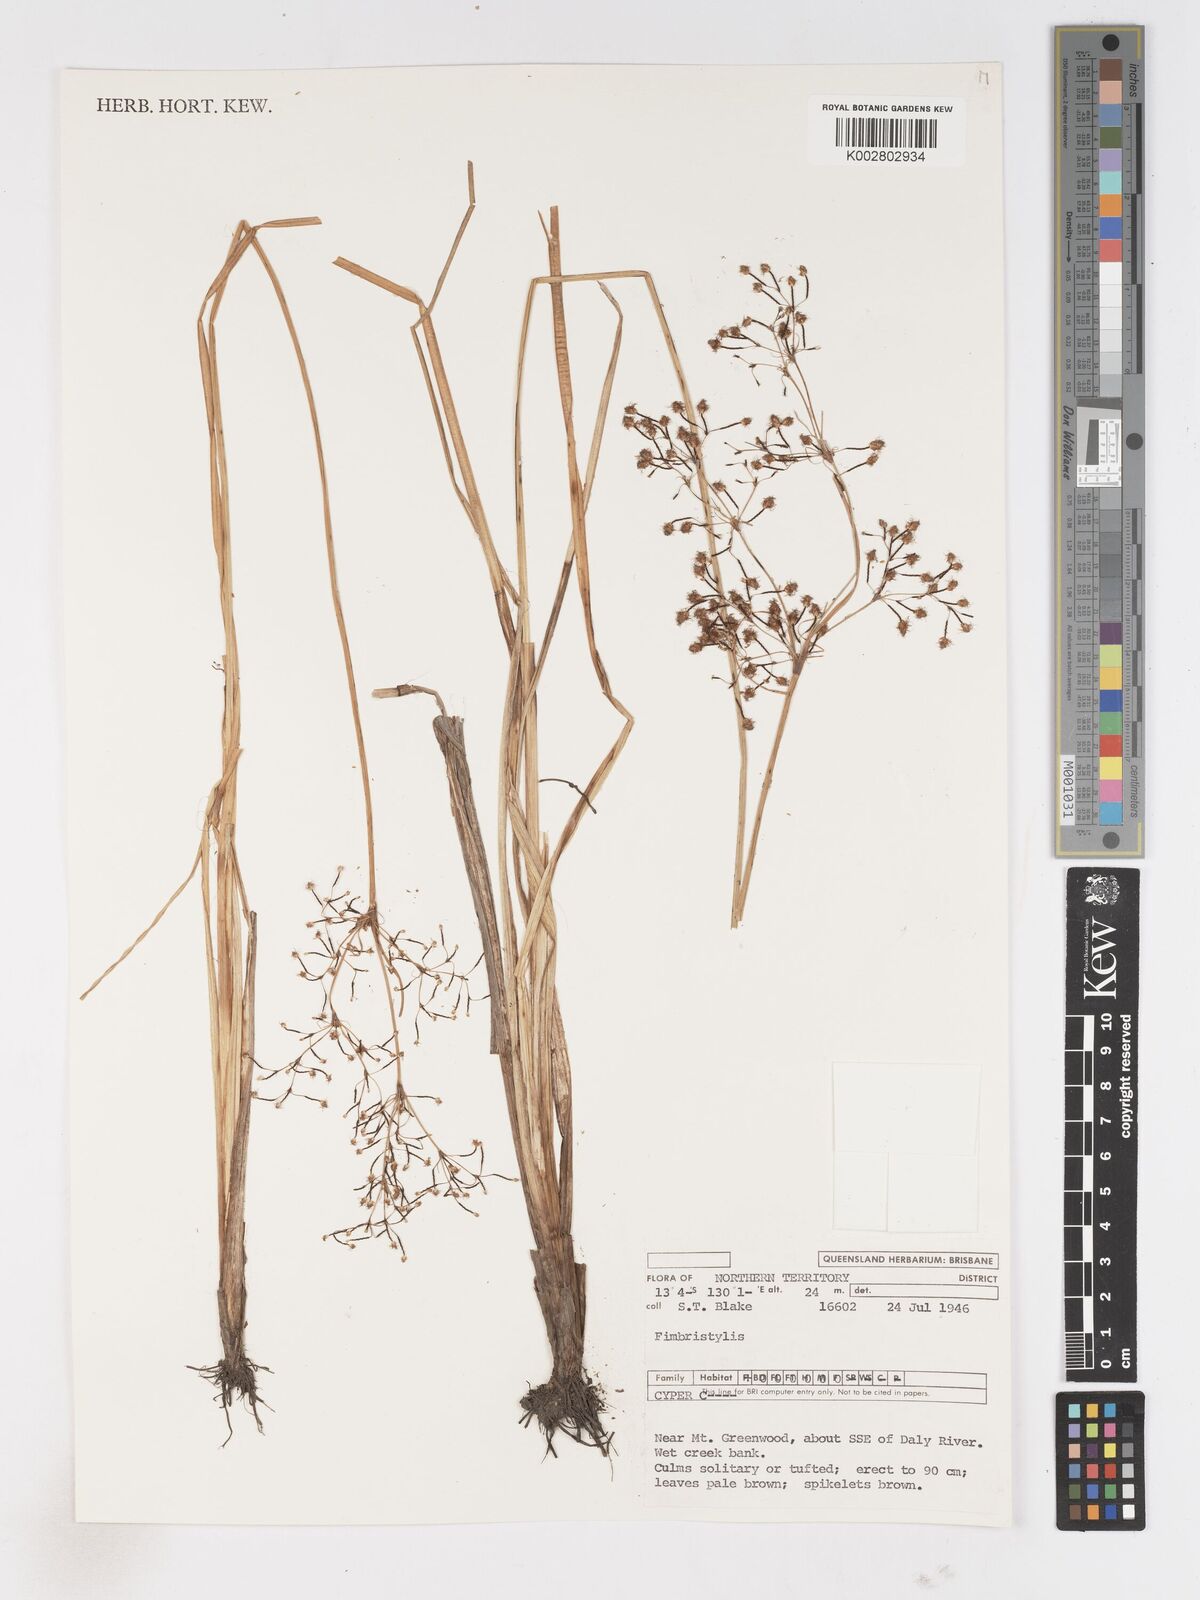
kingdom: Plantae
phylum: Tracheophyta
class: Liliopsida
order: Poales
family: Cyperaceae
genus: Fimbristylis
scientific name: Fimbristylis
